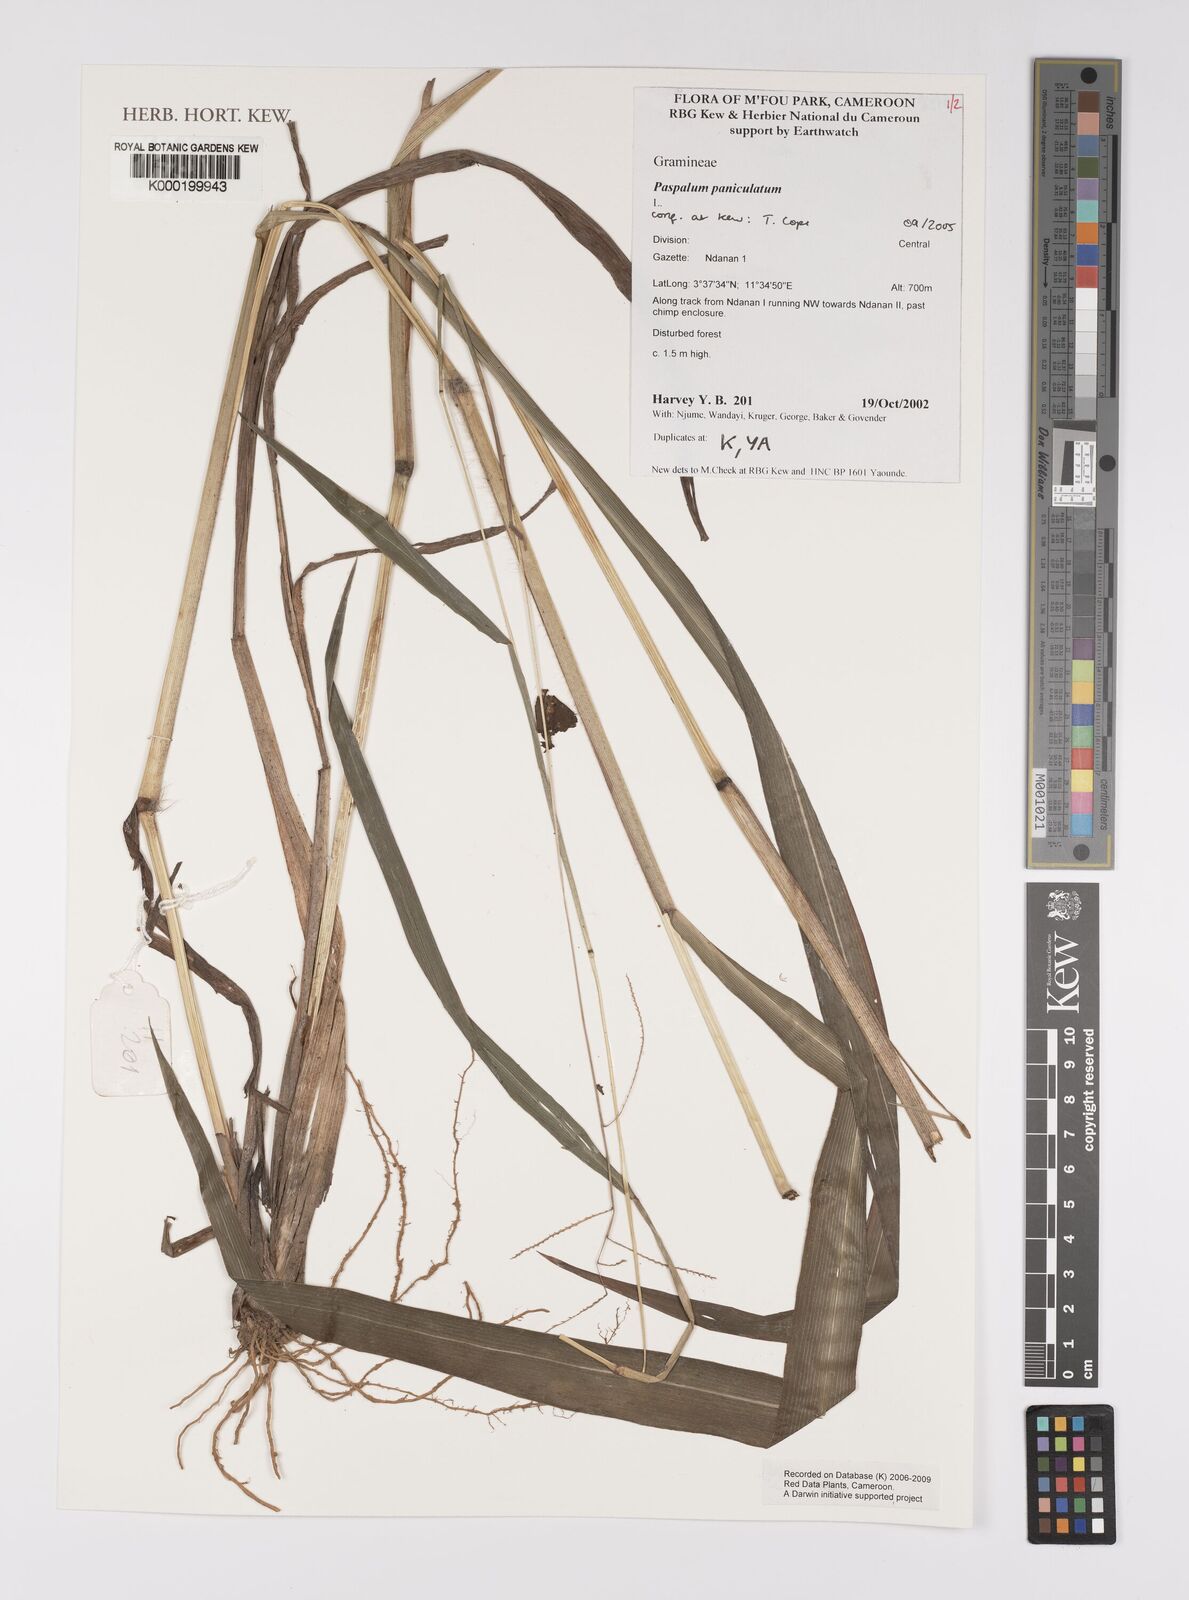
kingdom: Plantae
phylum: Tracheophyta
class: Liliopsida
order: Poales
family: Poaceae
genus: Paspalum
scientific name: Paspalum paniculatum
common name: Arrocillo
